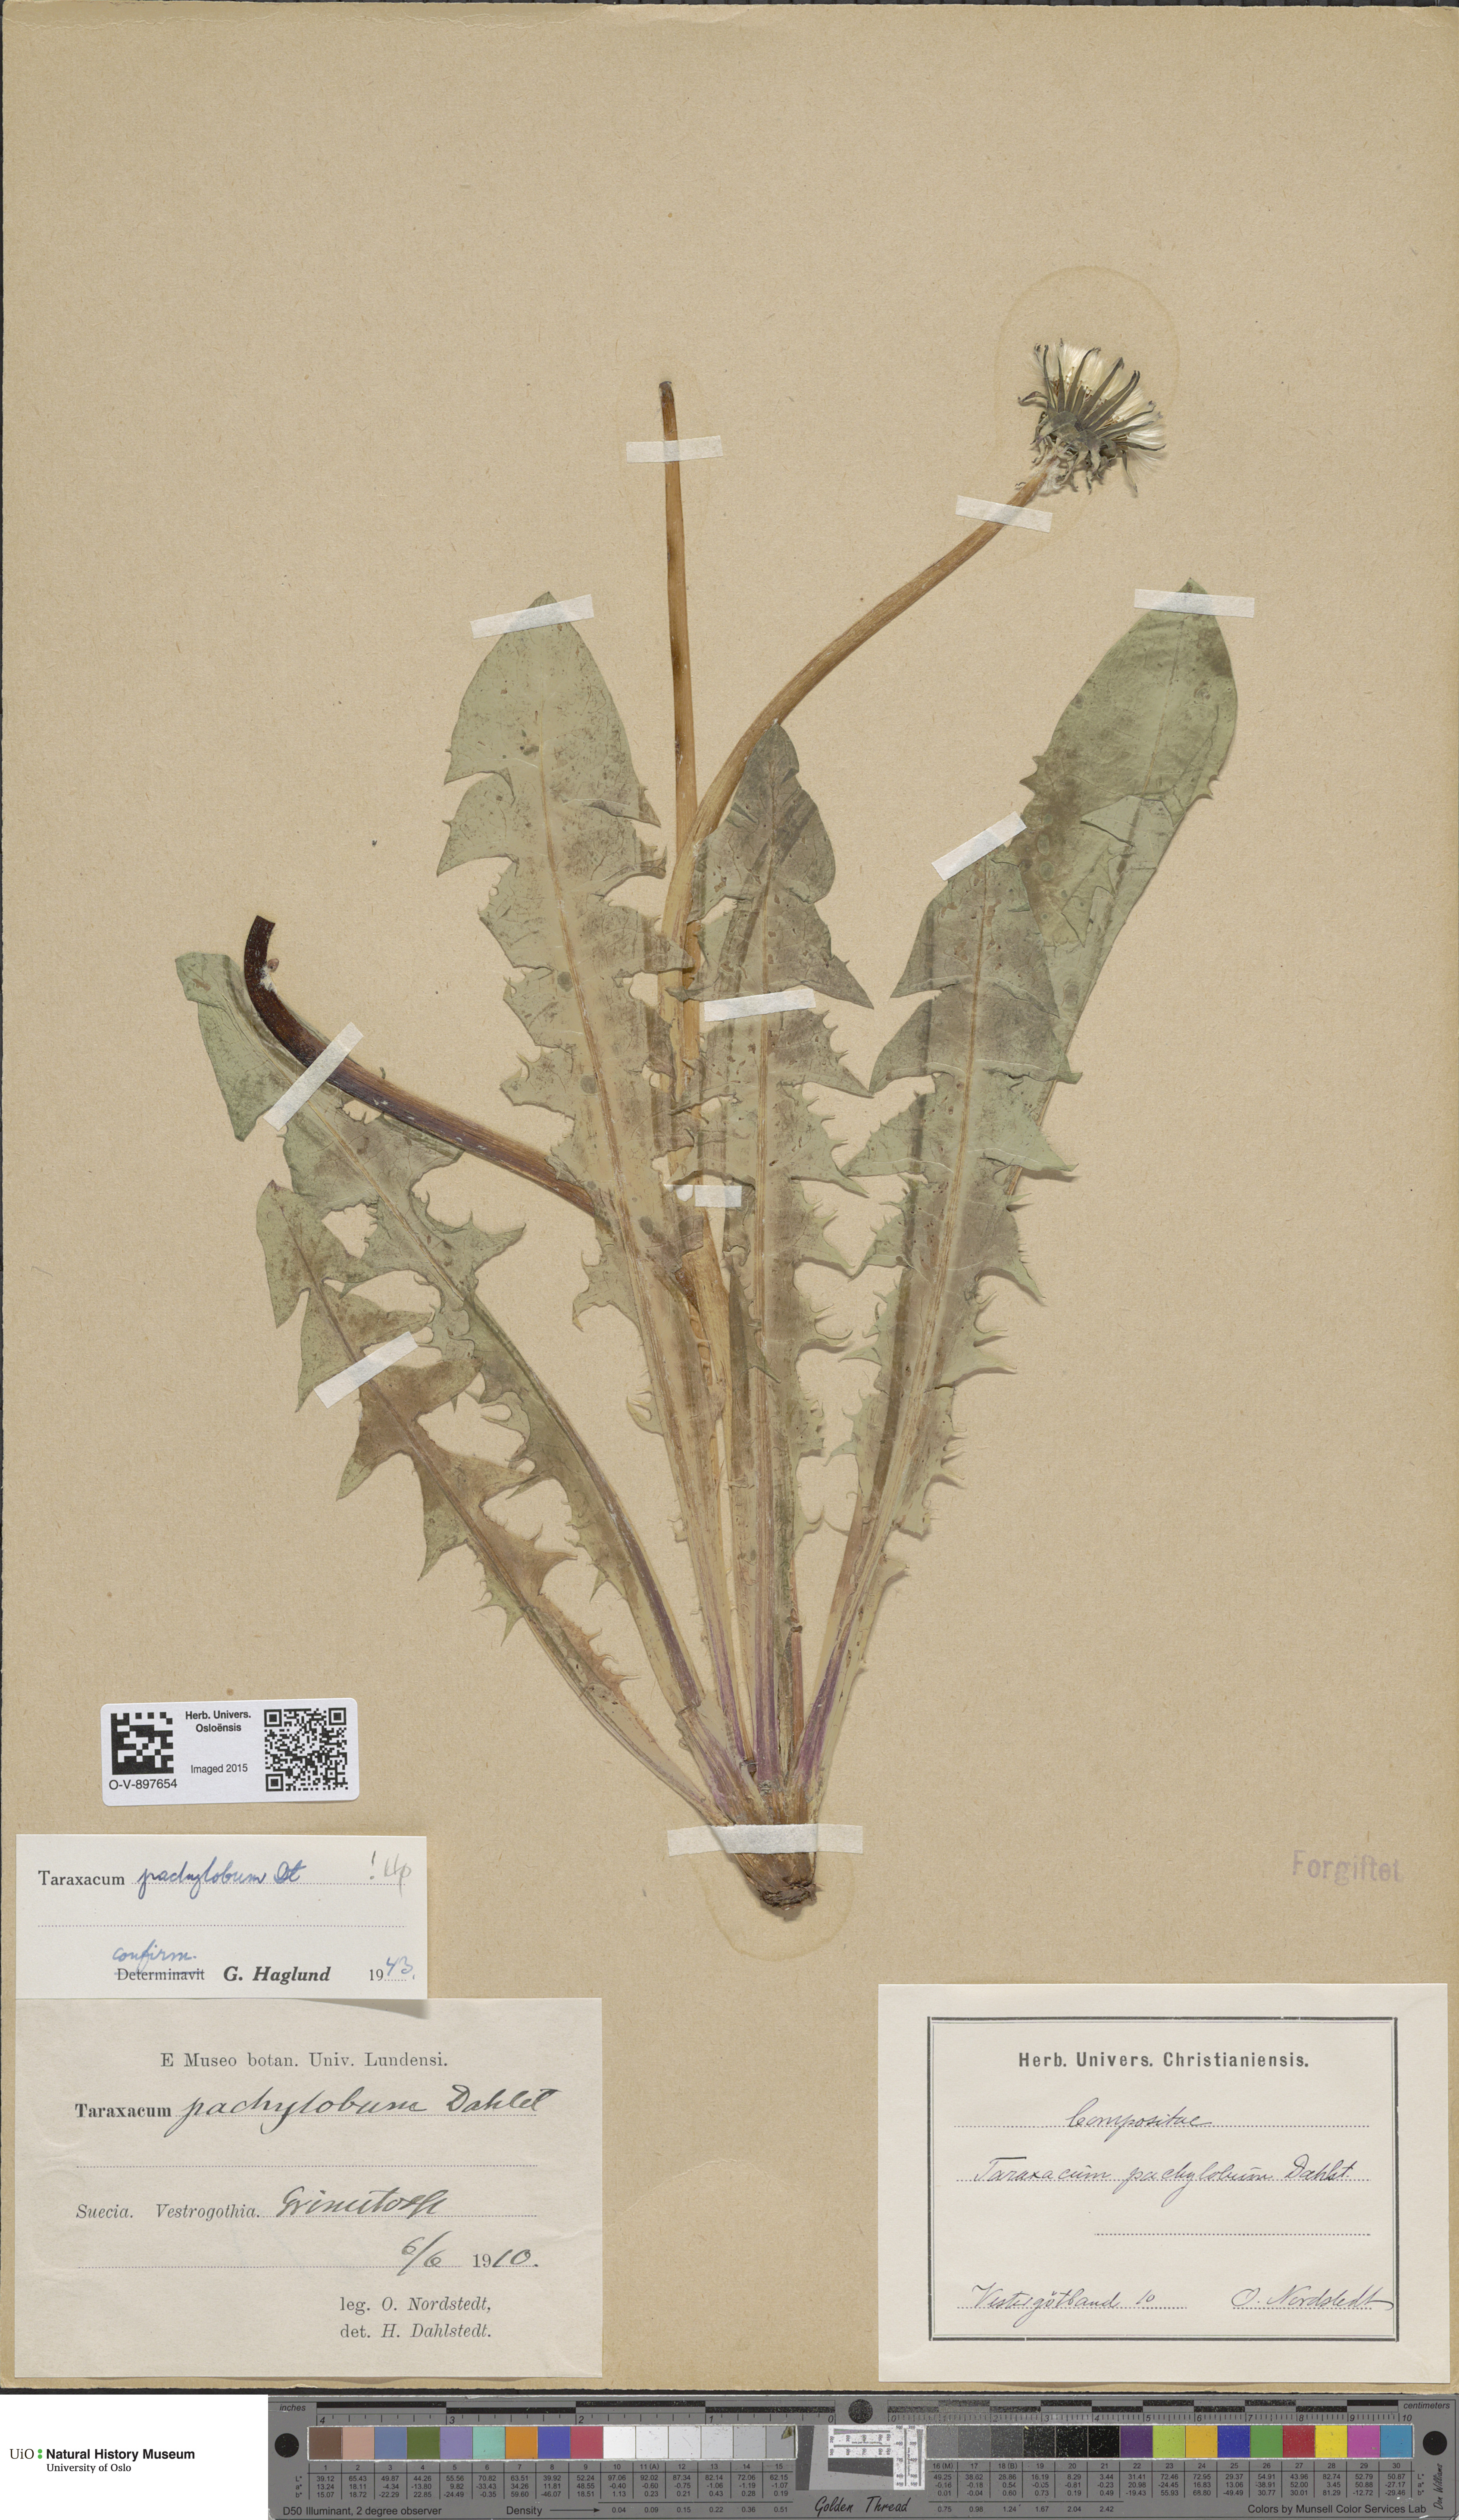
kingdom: Plantae
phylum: Tracheophyta
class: Magnoliopsida
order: Asterales
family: Asteraceae
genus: Taraxacum
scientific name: Taraxacum pachylobum
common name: Thick-lobed dandelion
